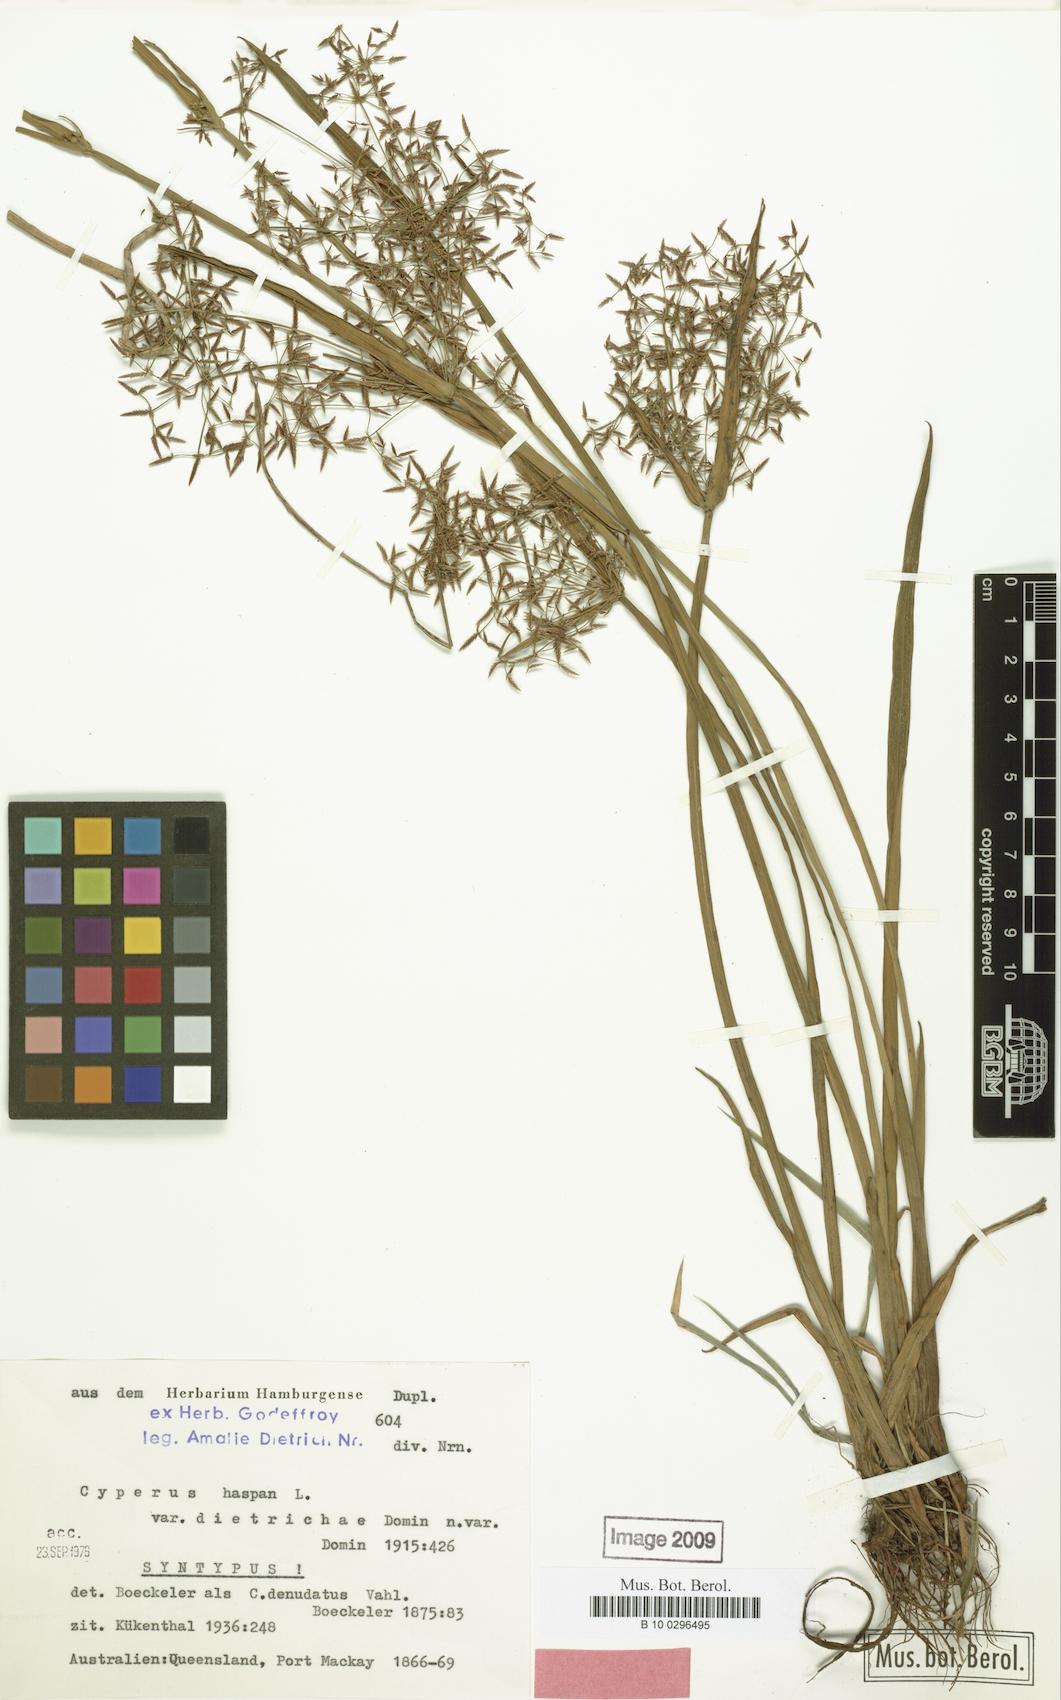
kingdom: Plantae
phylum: Tracheophyta
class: Liliopsida
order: Poales
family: Cyperaceae
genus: Cyperus
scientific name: Cyperus haspan
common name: Haspan flatsedge
